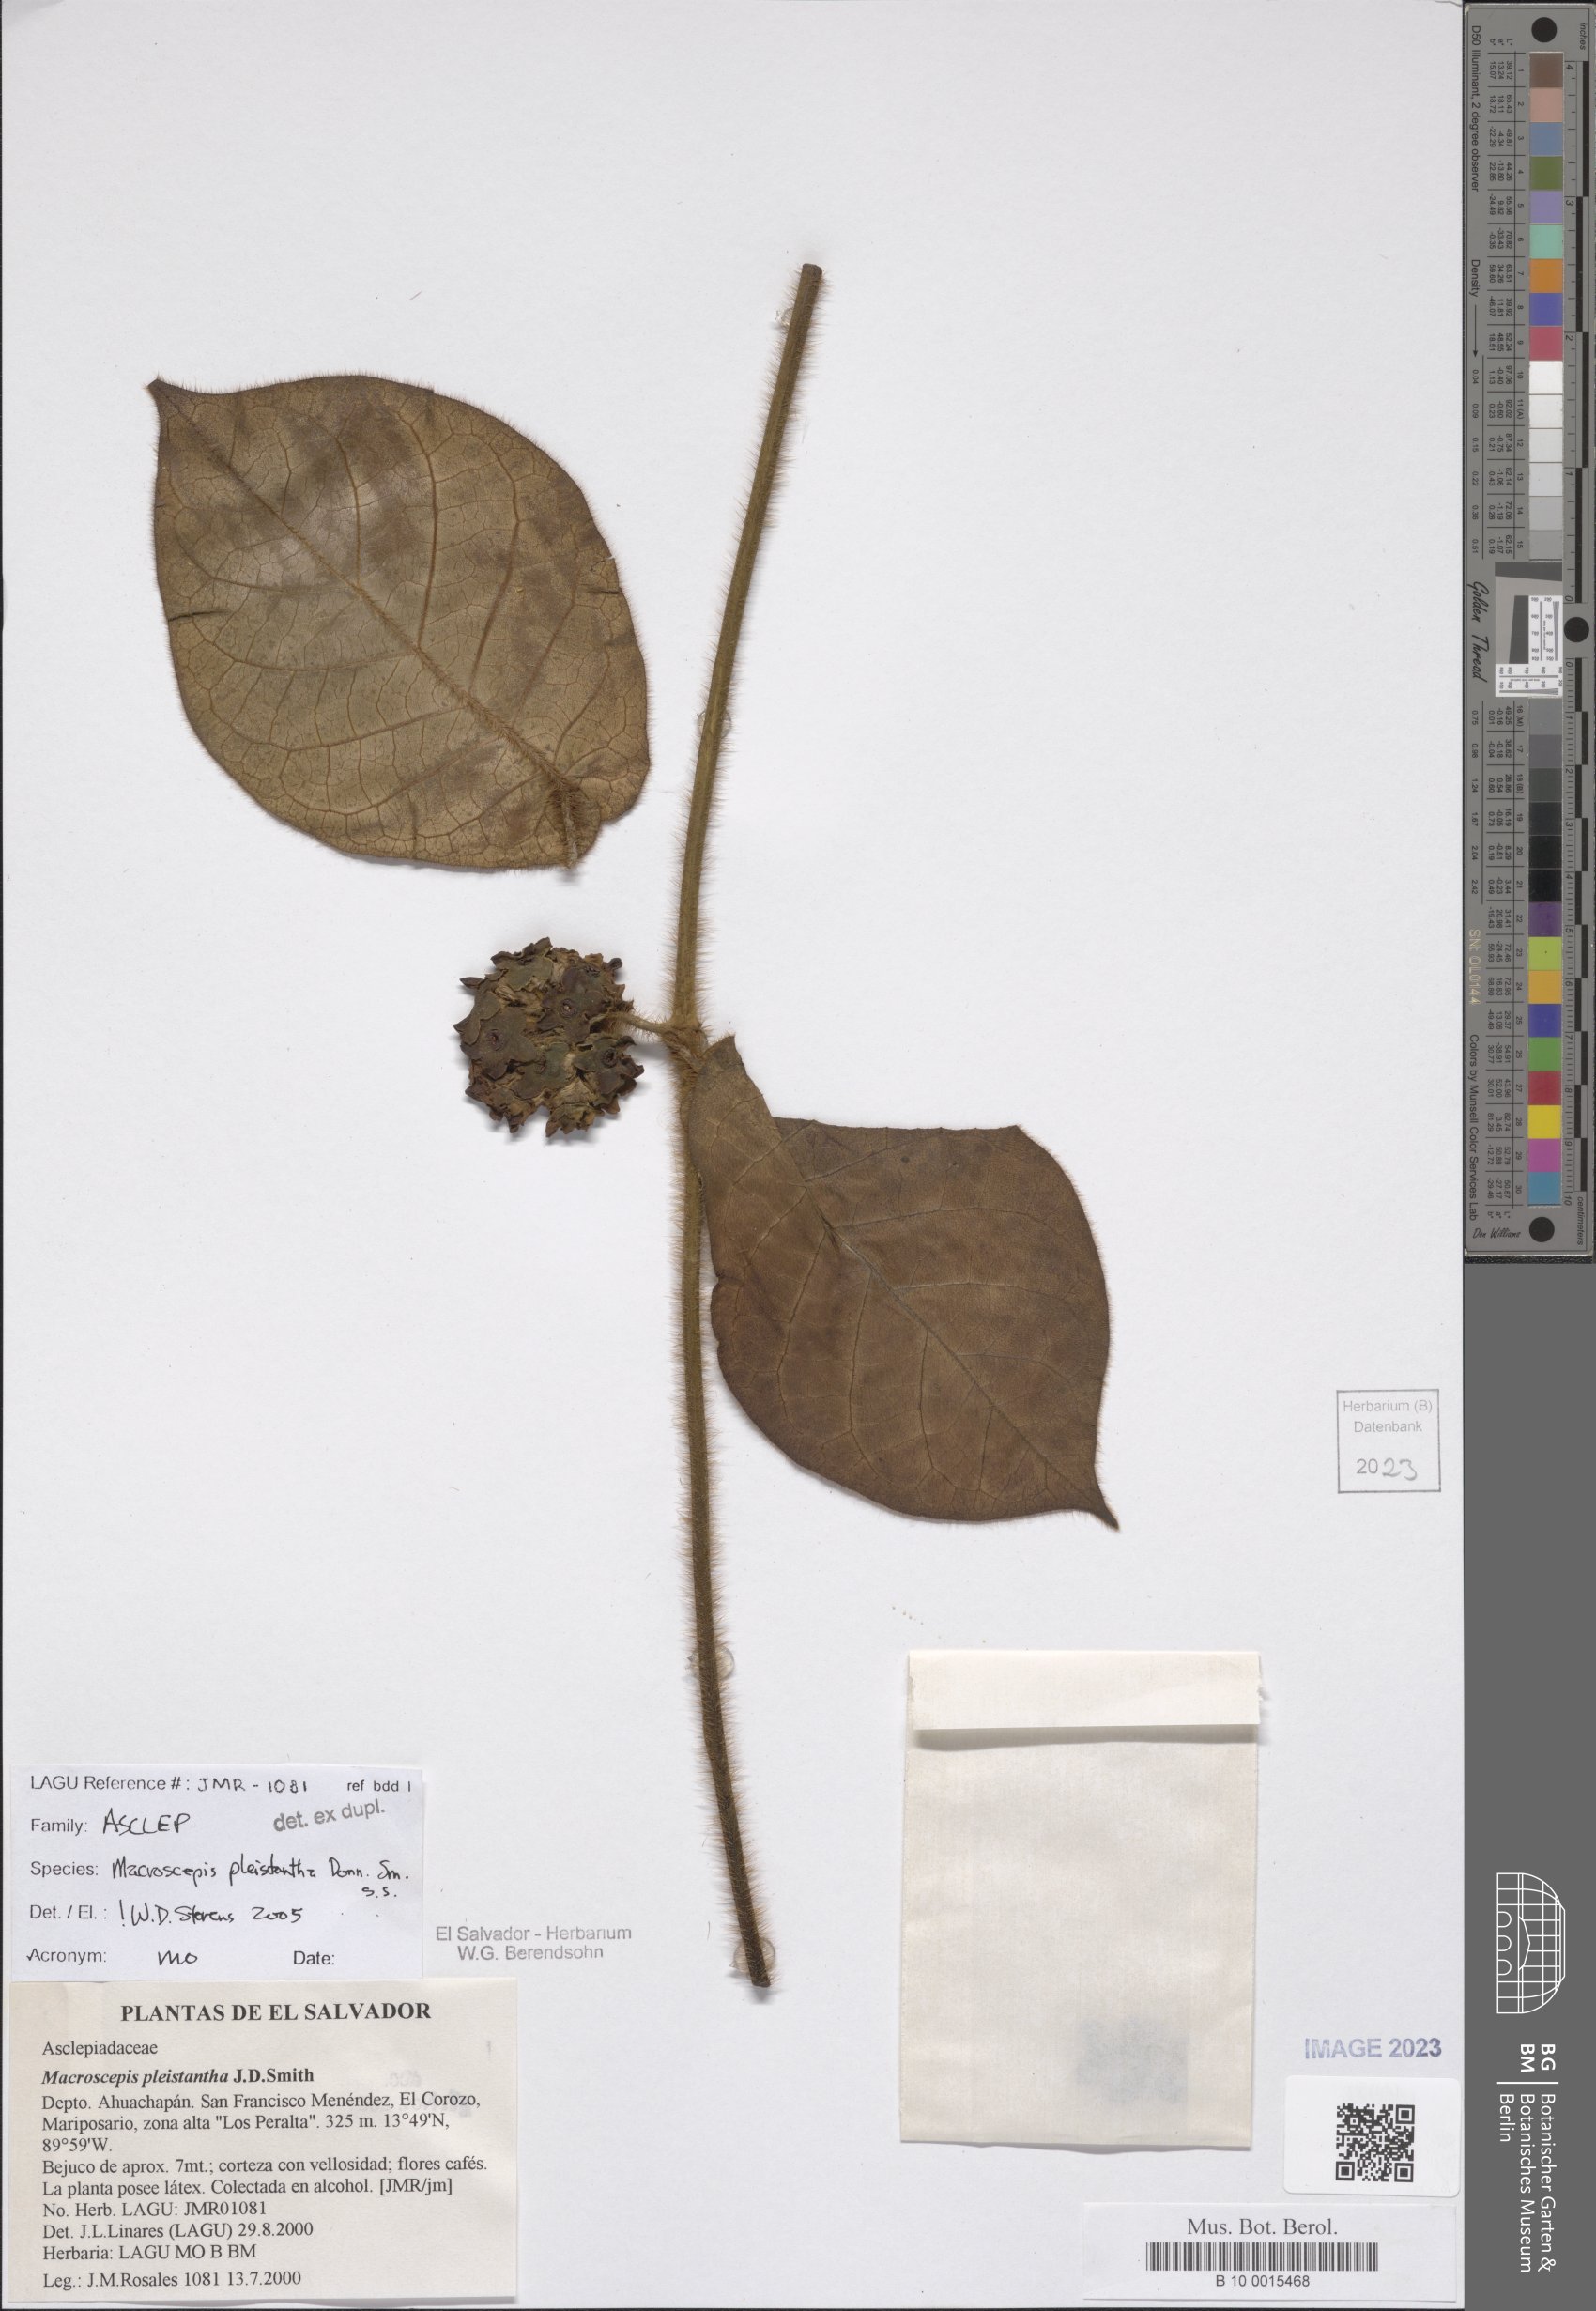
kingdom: Plantae
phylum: Tracheophyta
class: Magnoliopsida
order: Gentianales
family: Apocynaceae
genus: Macroscepis
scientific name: Macroscepis pleistantha
